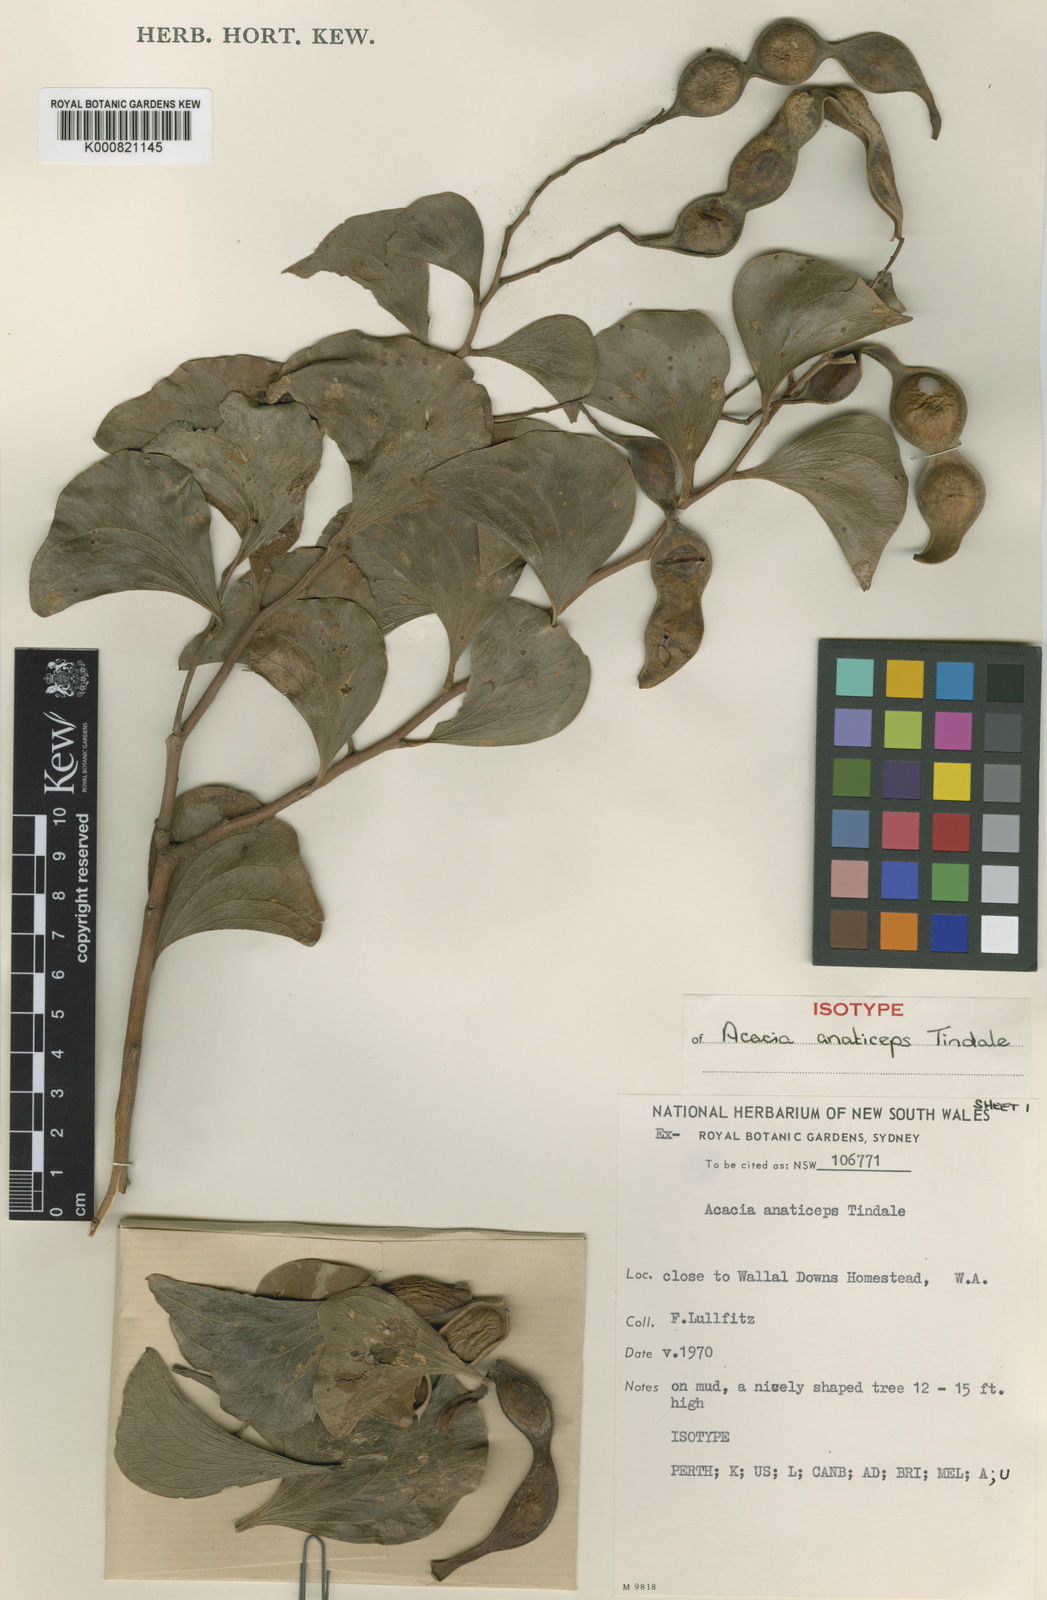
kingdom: Plantae
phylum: Tracheophyta
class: Magnoliopsida
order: Fabales
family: Fabaceae
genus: Acacia
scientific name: Acacia anaticeps
